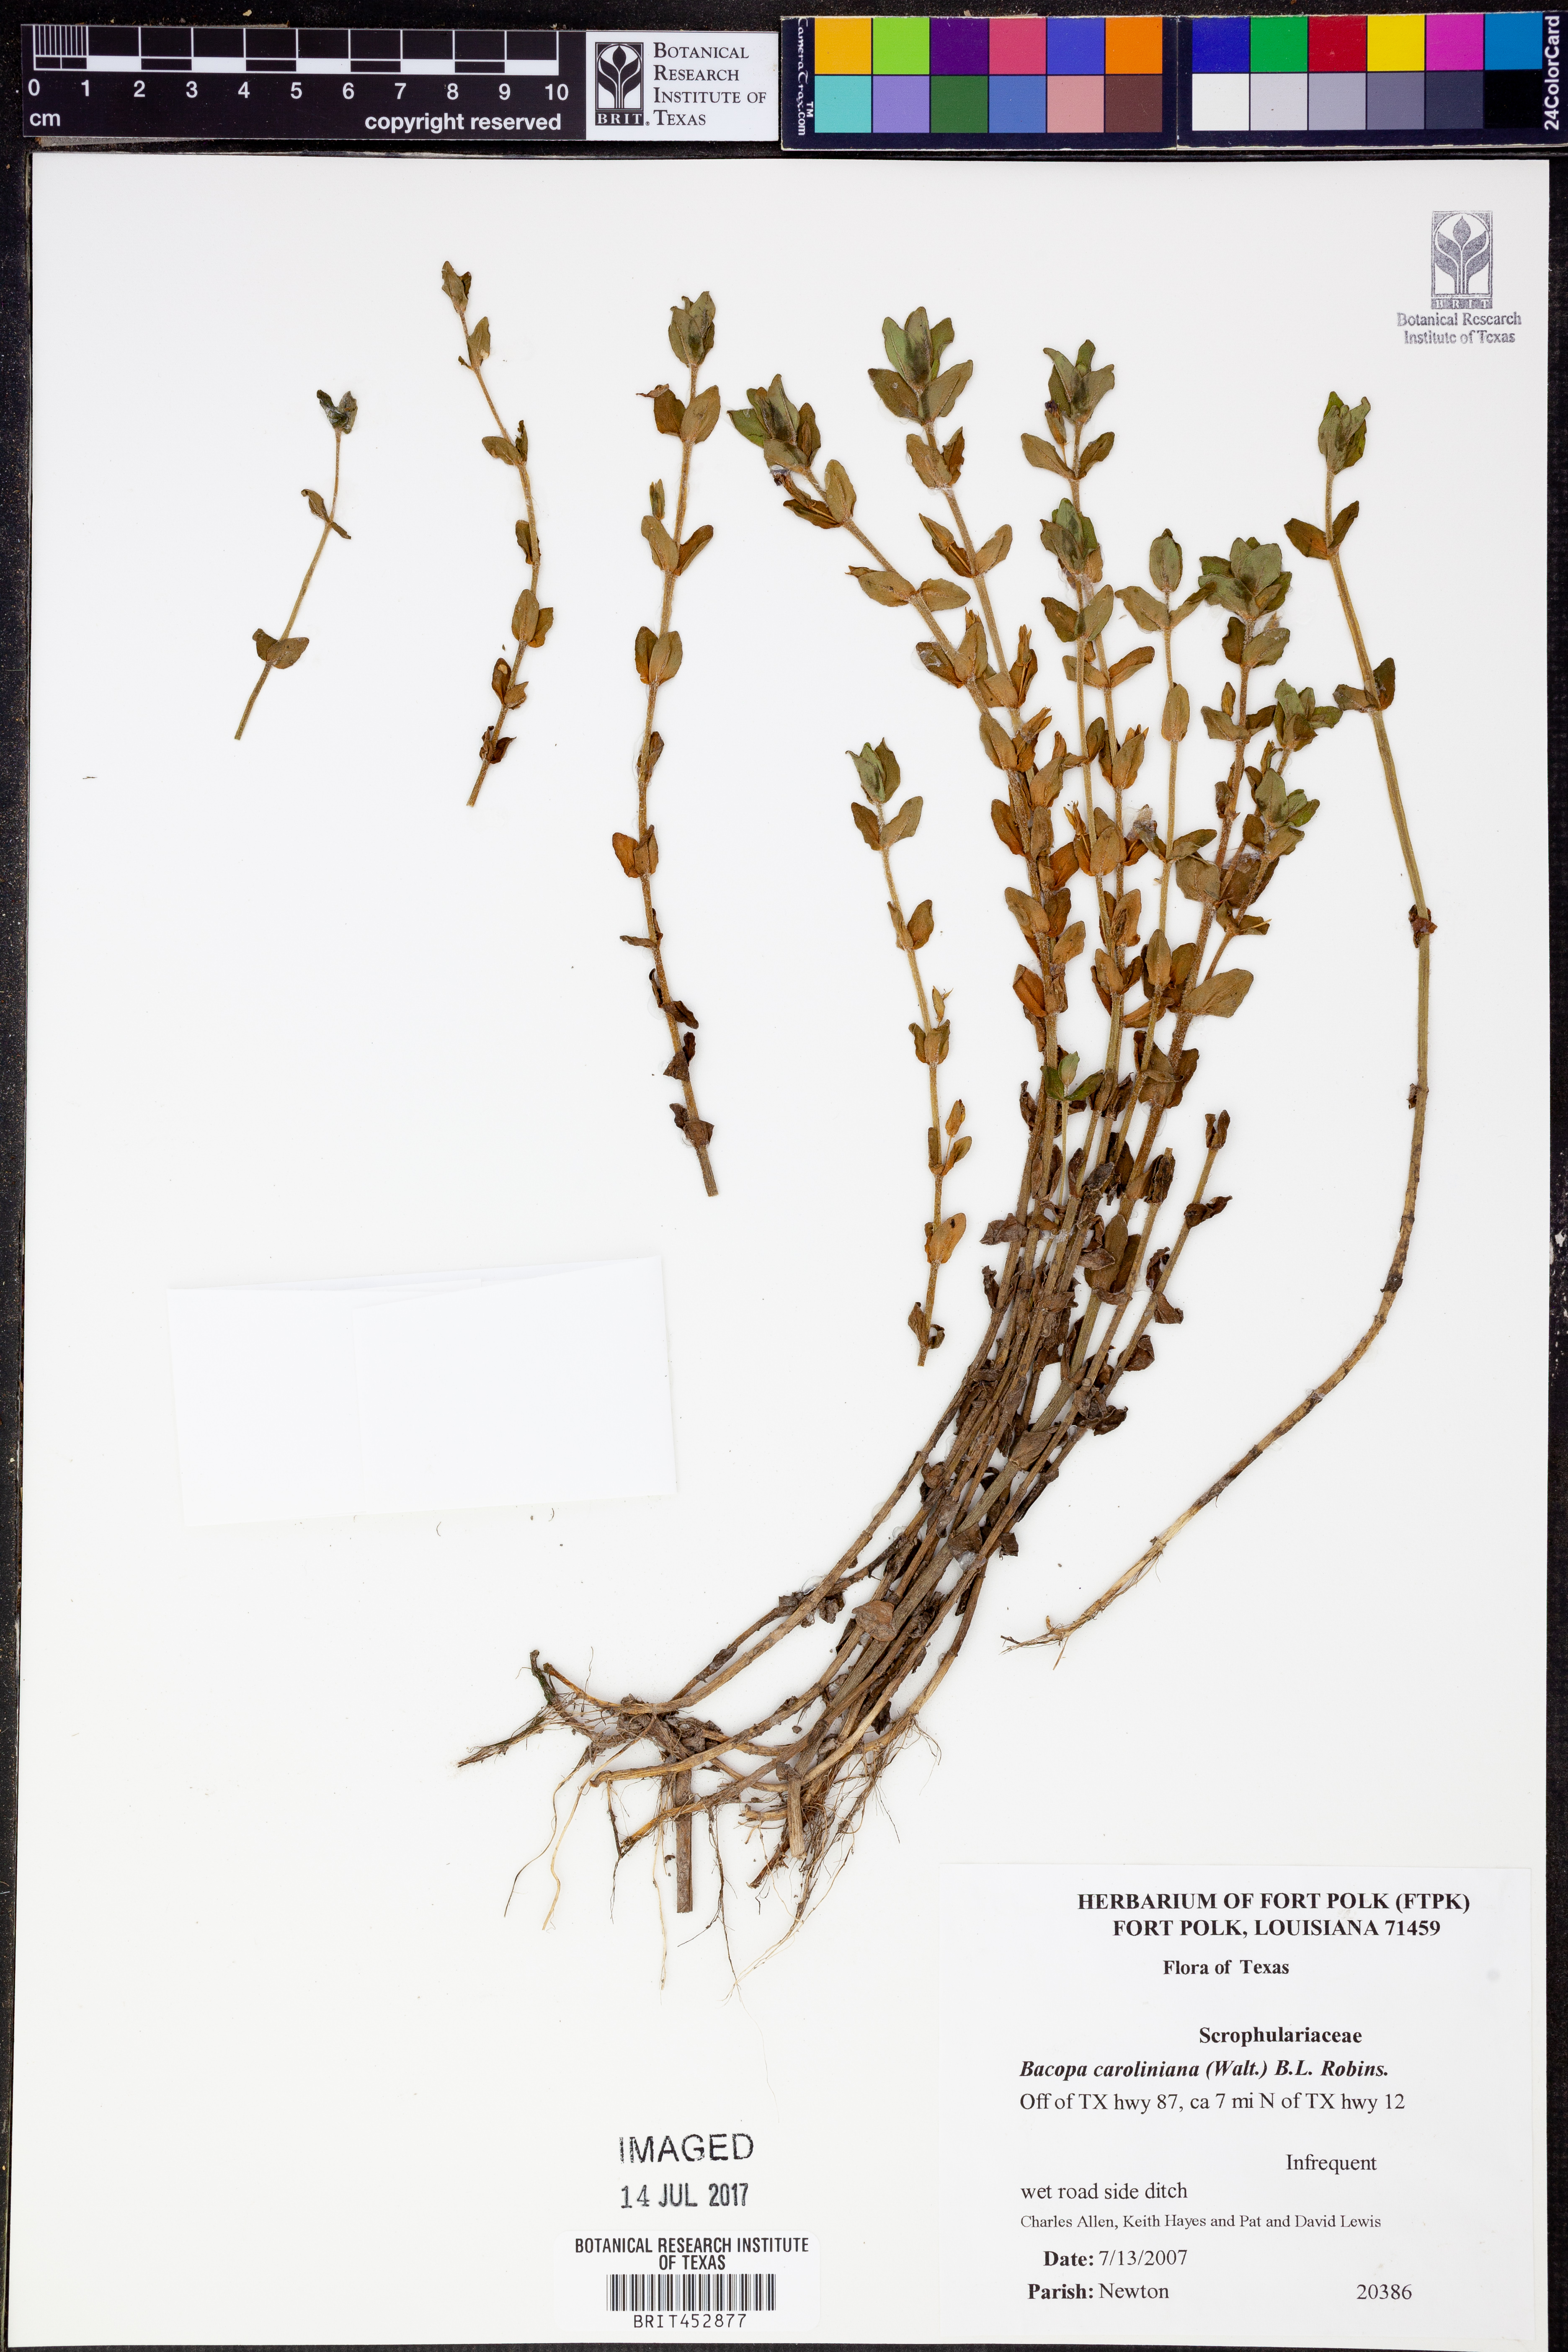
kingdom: Plantae
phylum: Tracheophyta
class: Magnoliopsida
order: Lamiales
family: Plantaginaceae
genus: Bacopa
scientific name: Bacopa caroliniana
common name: Lemon bacopa
